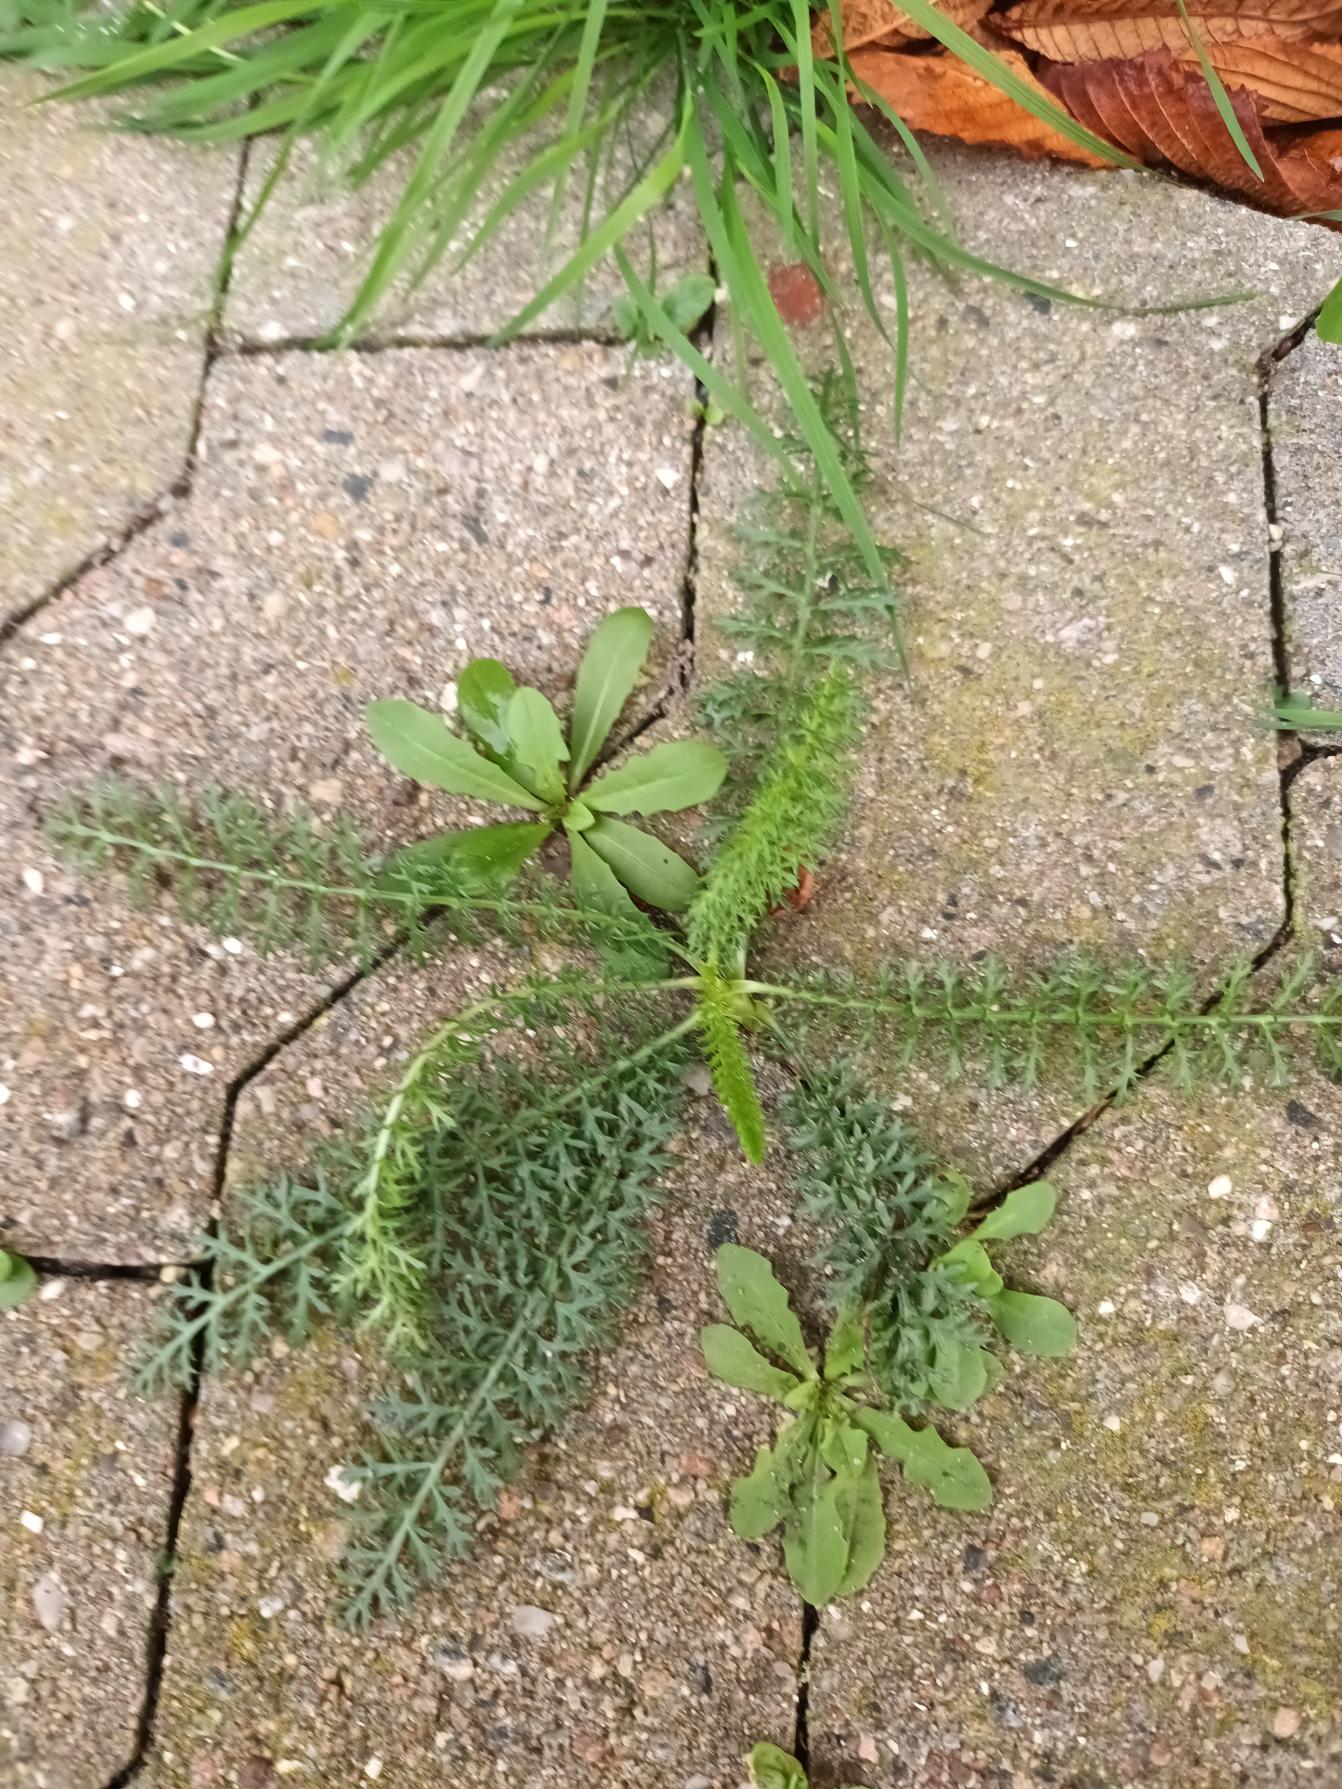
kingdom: Plantae
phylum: Tracheophyta
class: Magnoliopsida
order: Asterales
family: Asteraceae
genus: Achillea
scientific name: Achillea millefolium
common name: Almindelig røllike
